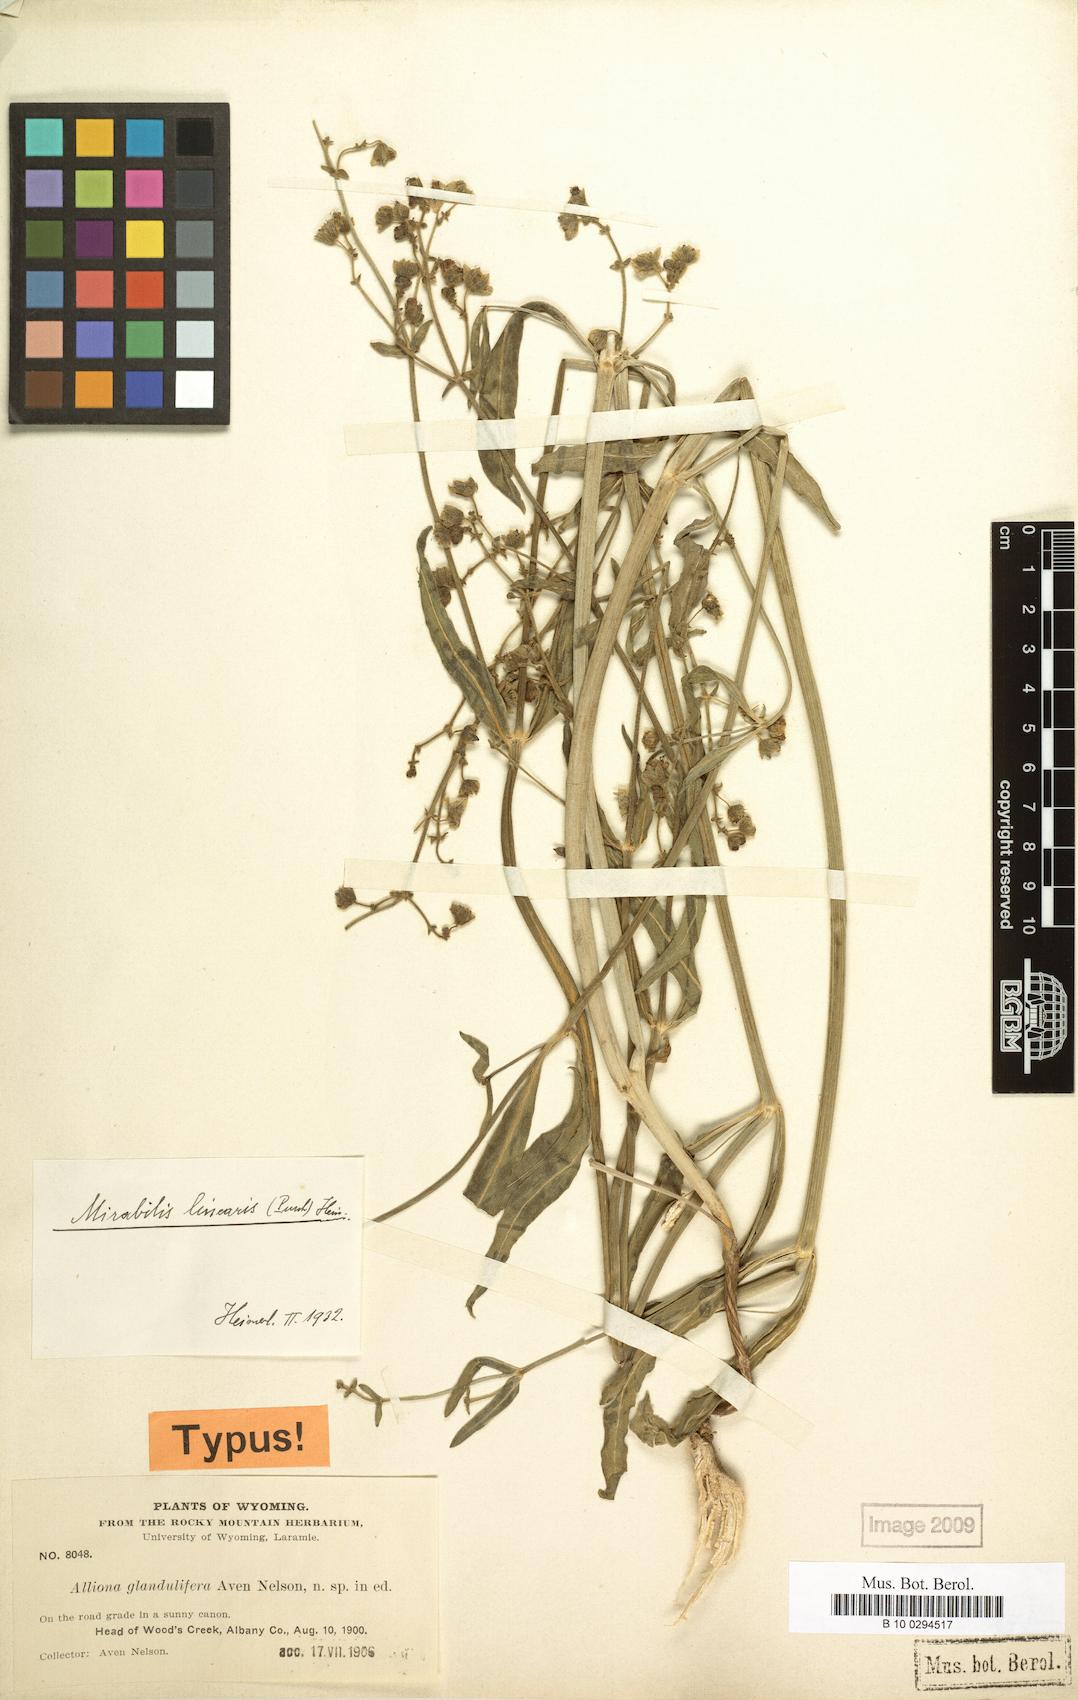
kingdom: Plantae
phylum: Tracheophyta
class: Magnoliopsida
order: Caryophyllales
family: Nyctaginaceae
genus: Mirabilis
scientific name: Mirabilis linearis
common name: Linear-leaved four-o'clock
